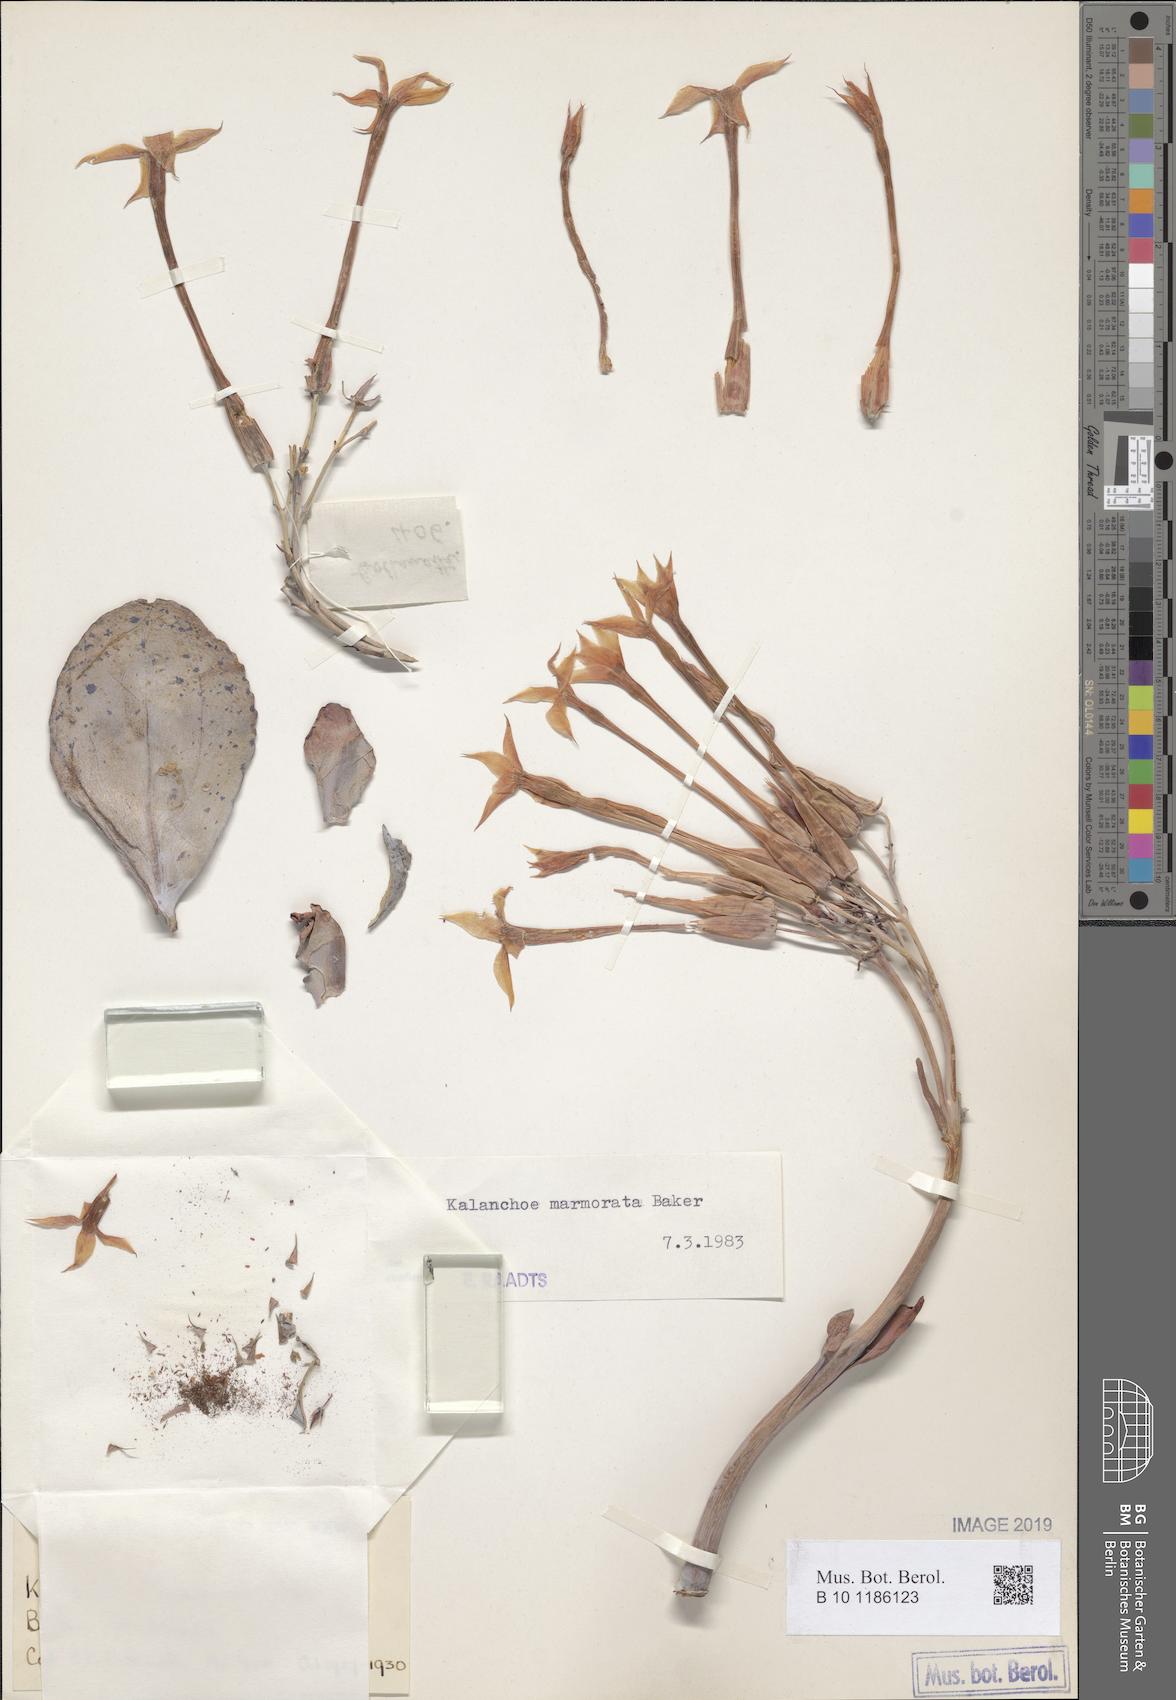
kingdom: Plantae
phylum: Tracheophyta
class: Magnoliopsida
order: Saxifragales
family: Crassulaceae
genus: Kalanchoe
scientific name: Kalanchoe marmorata
